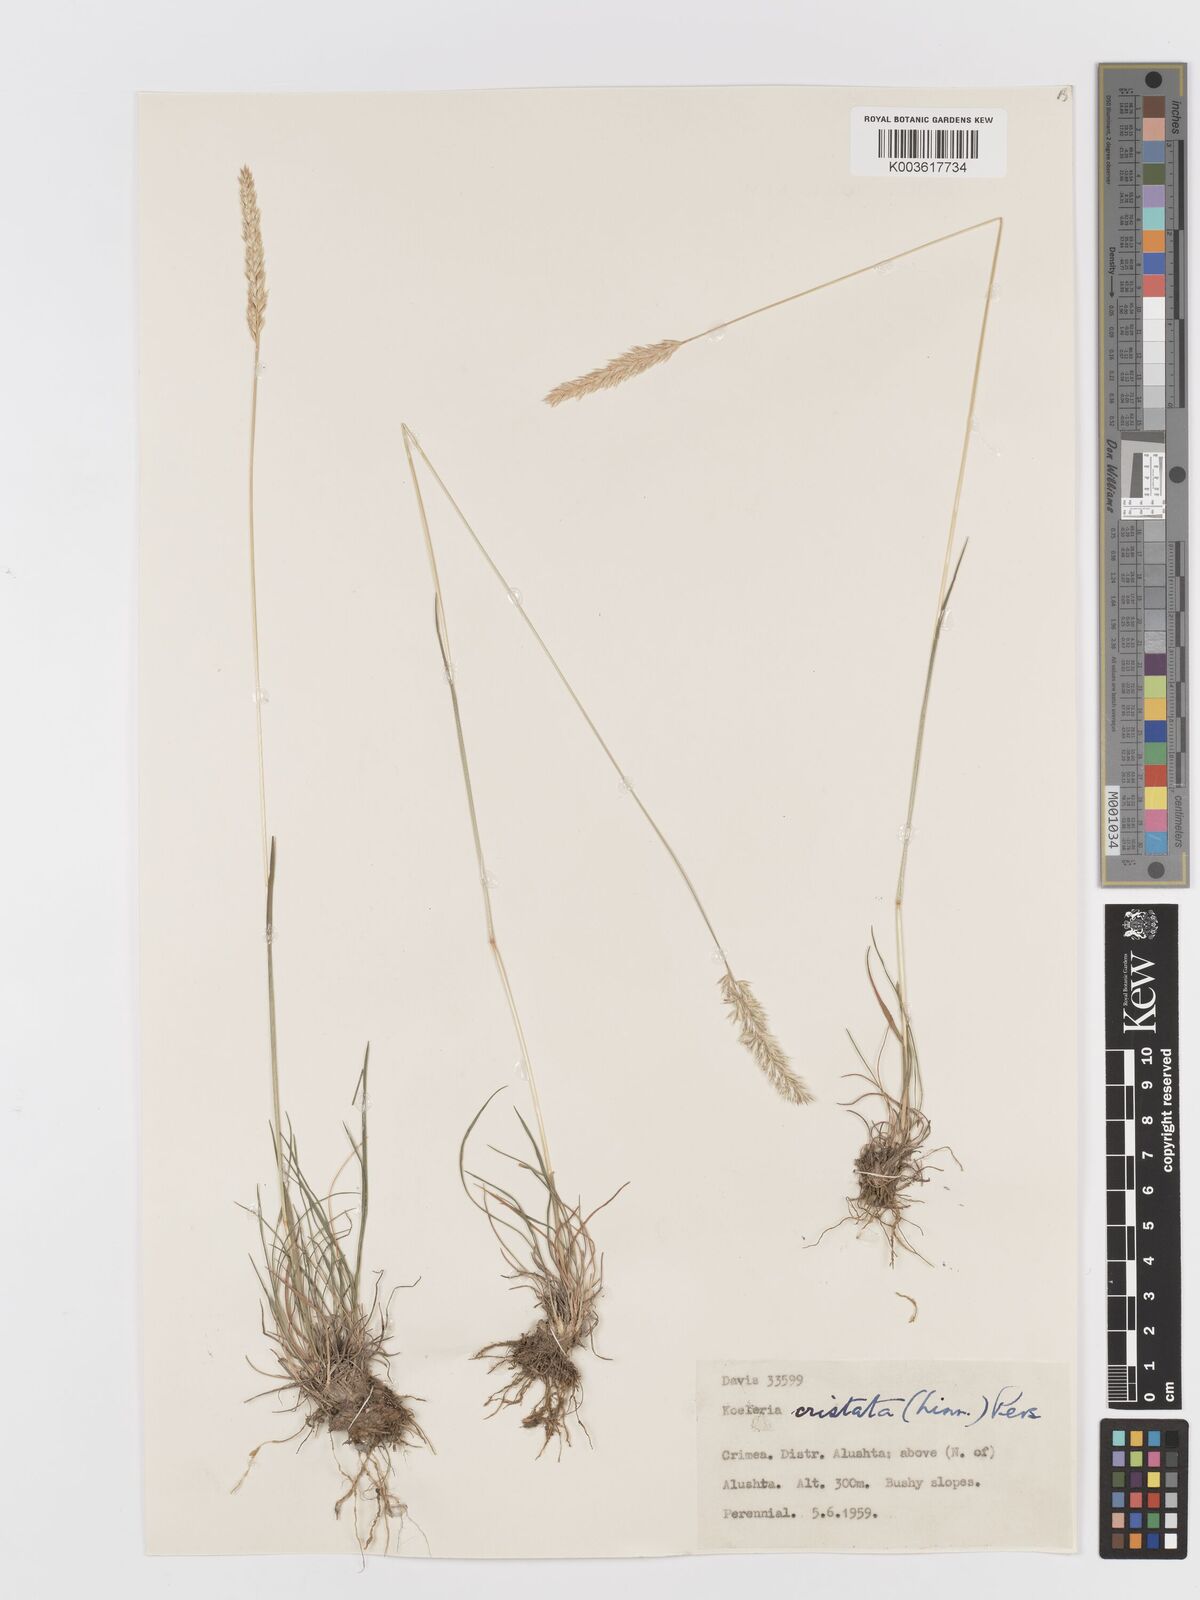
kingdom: Plantae
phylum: Tracheophyta
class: Liliopsida
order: Poales
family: Poaceae
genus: Koeleria
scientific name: Koeleria splendens
